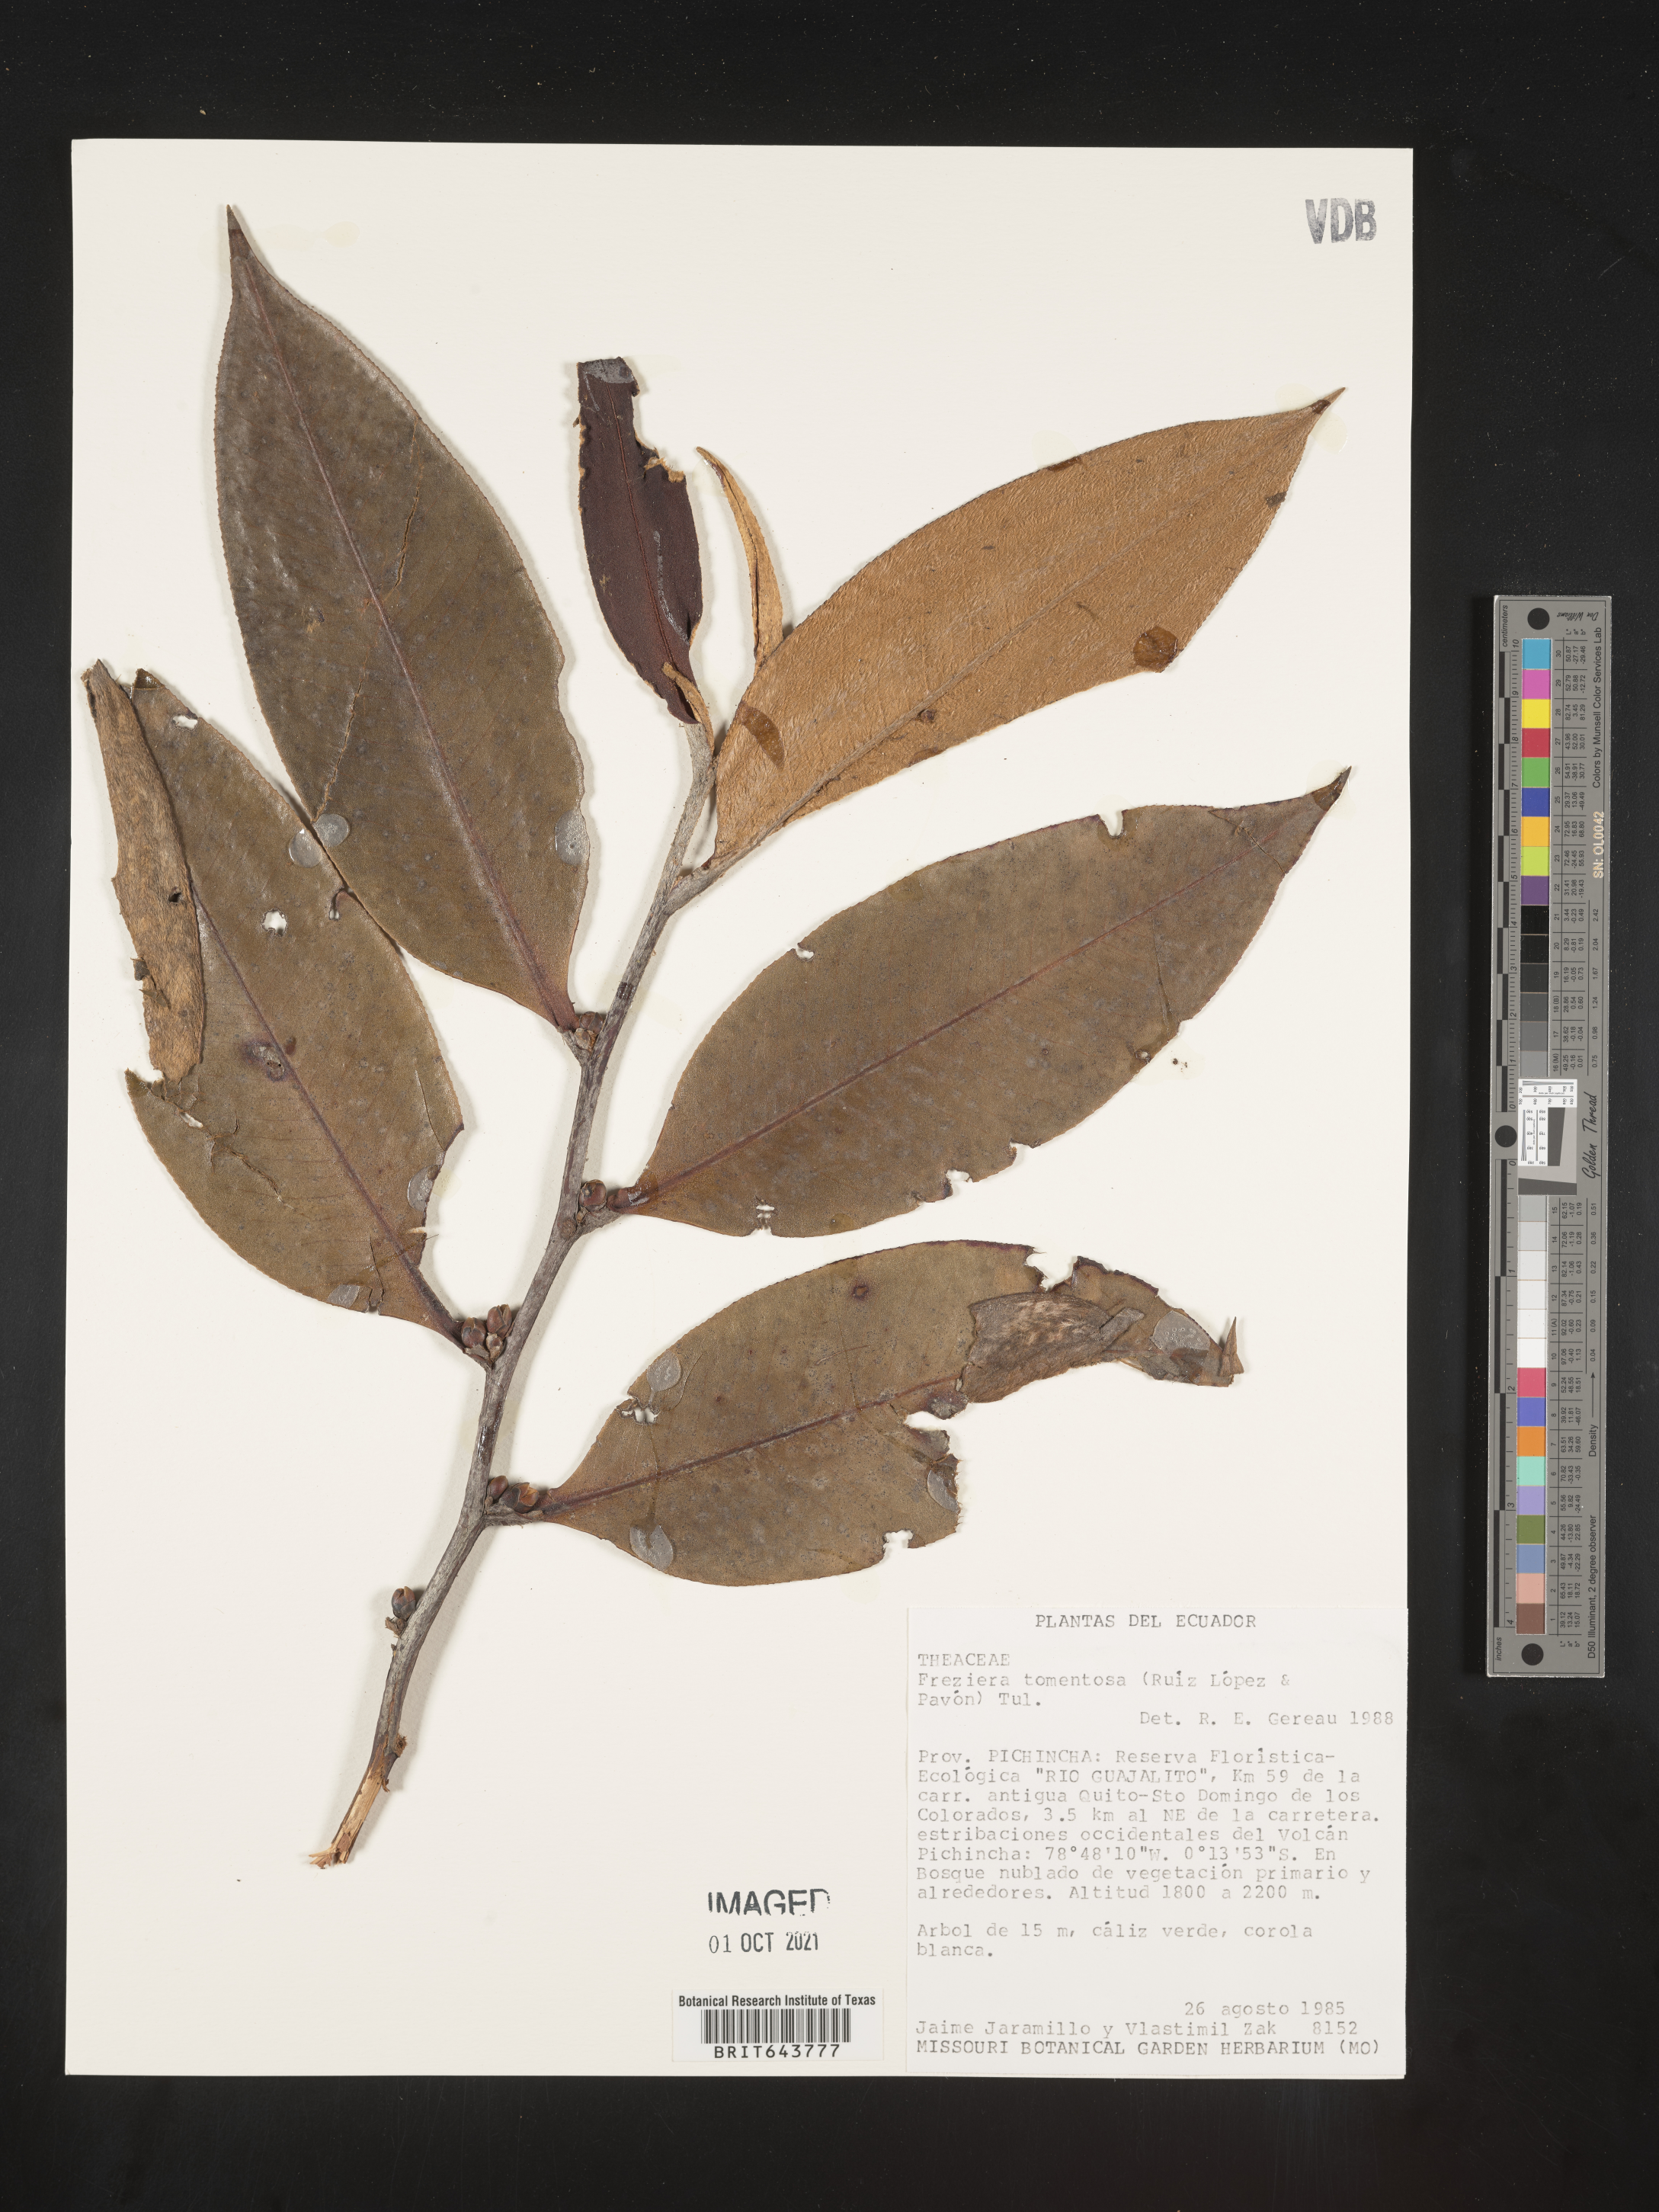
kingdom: Plantae
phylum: Tracheophyta
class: Magnoliopsida
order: Ericales
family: Pentaphylacaceae
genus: Freziera
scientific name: Freziera
